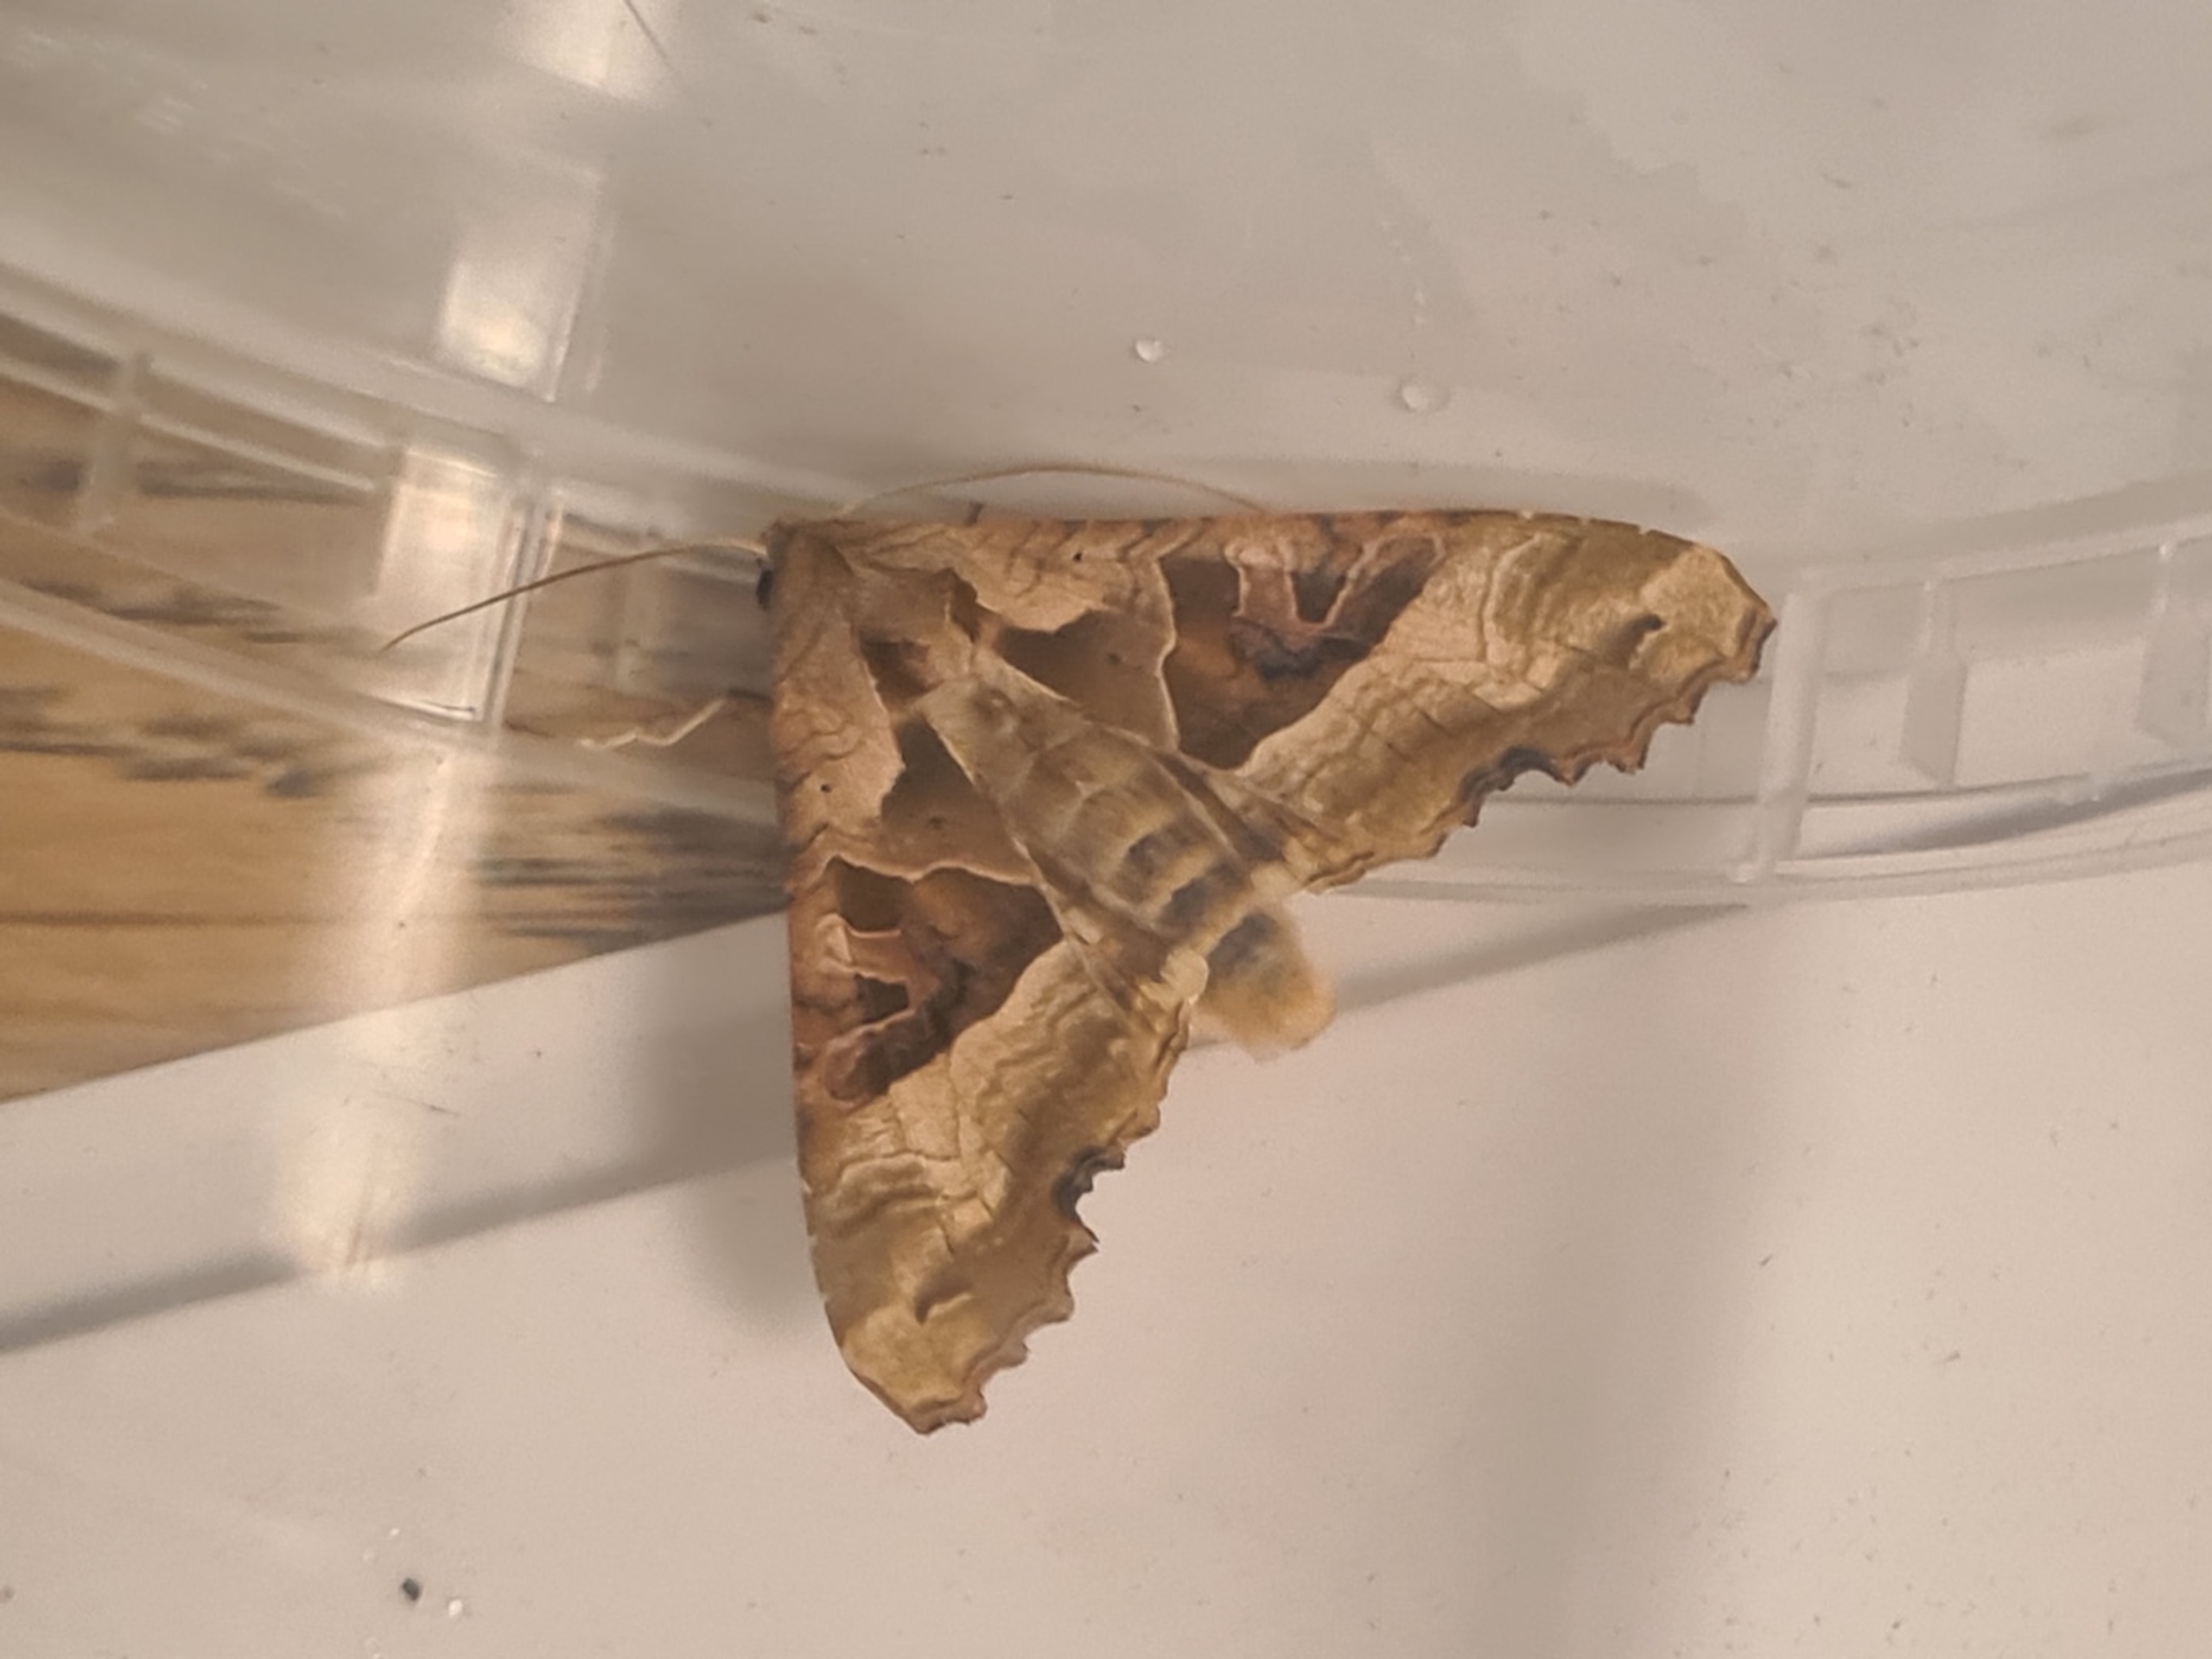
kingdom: Animalia
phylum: Arthropoda
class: Insecta
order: Lepidoptera
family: Noctuidae
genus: Phlogophora
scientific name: Phlogophora meticulosa
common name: Agatugle
